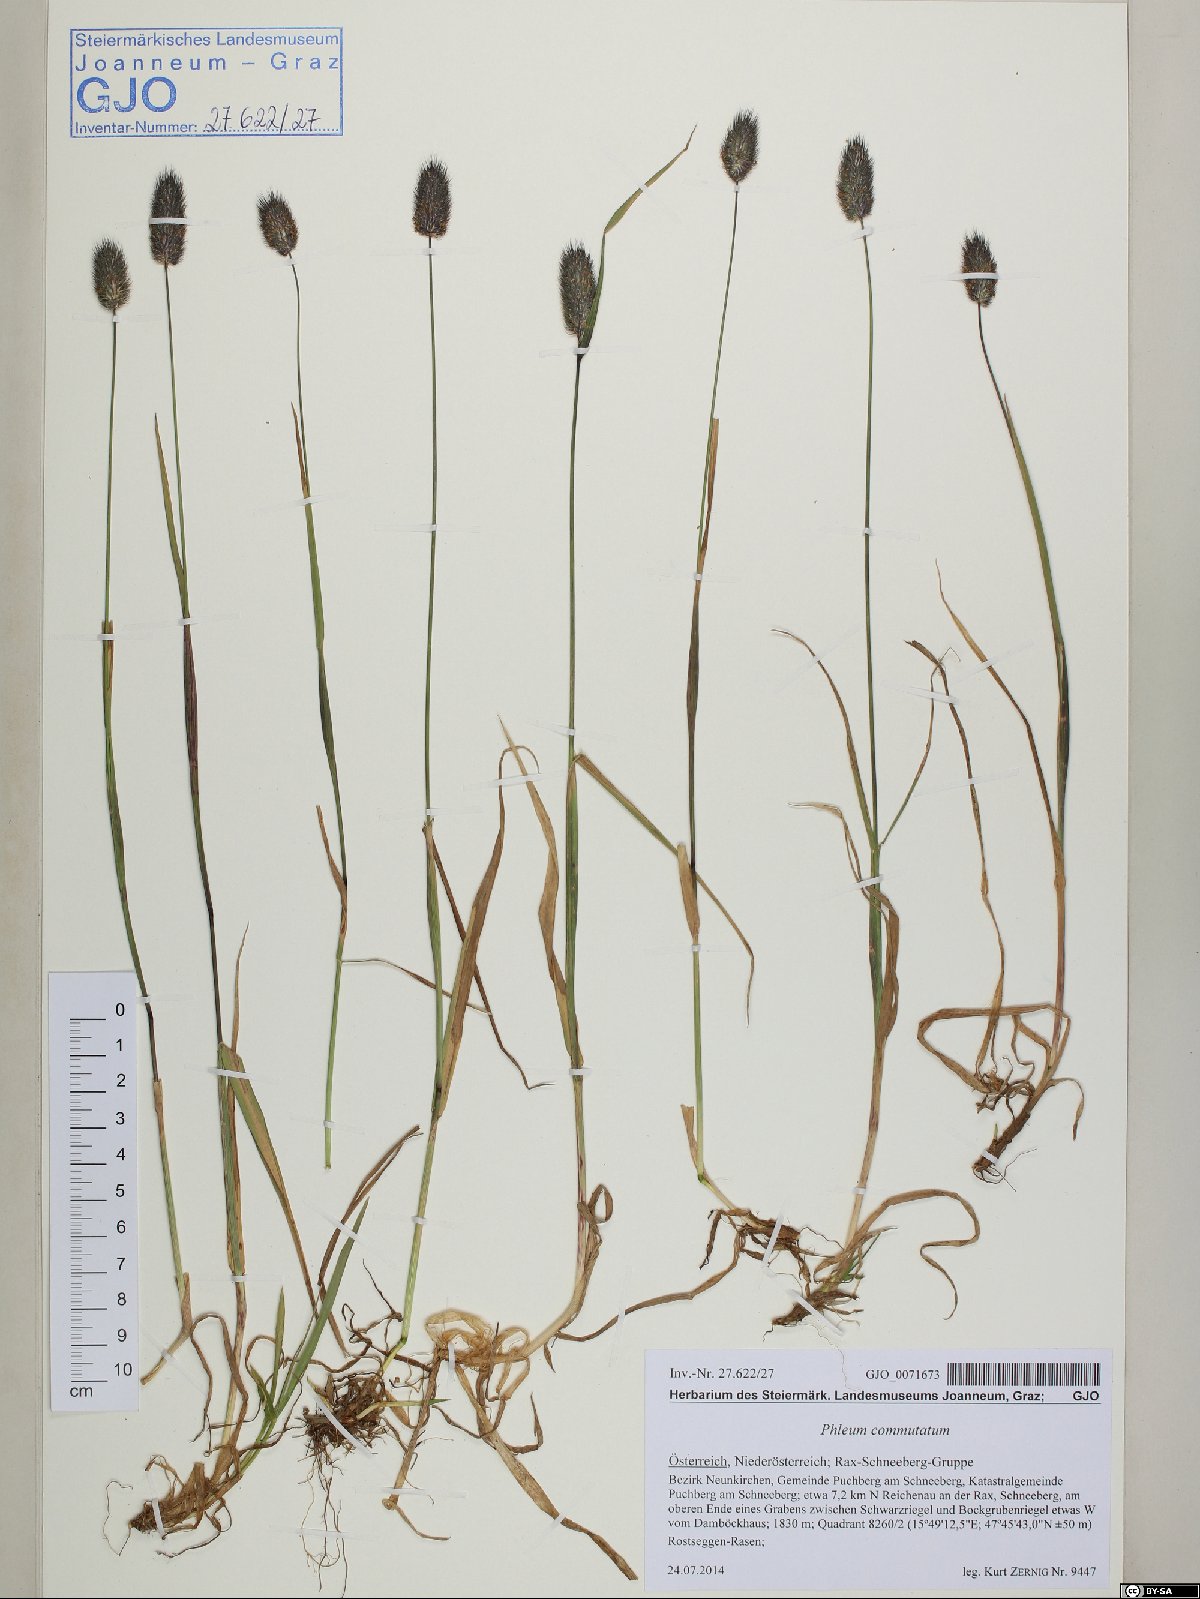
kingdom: Plantae
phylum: Tracheophyta
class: Liliopsida
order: Poales
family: Poaceae
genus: Phleum
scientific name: Phleum alpinum
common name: Alpine cat's-tail
